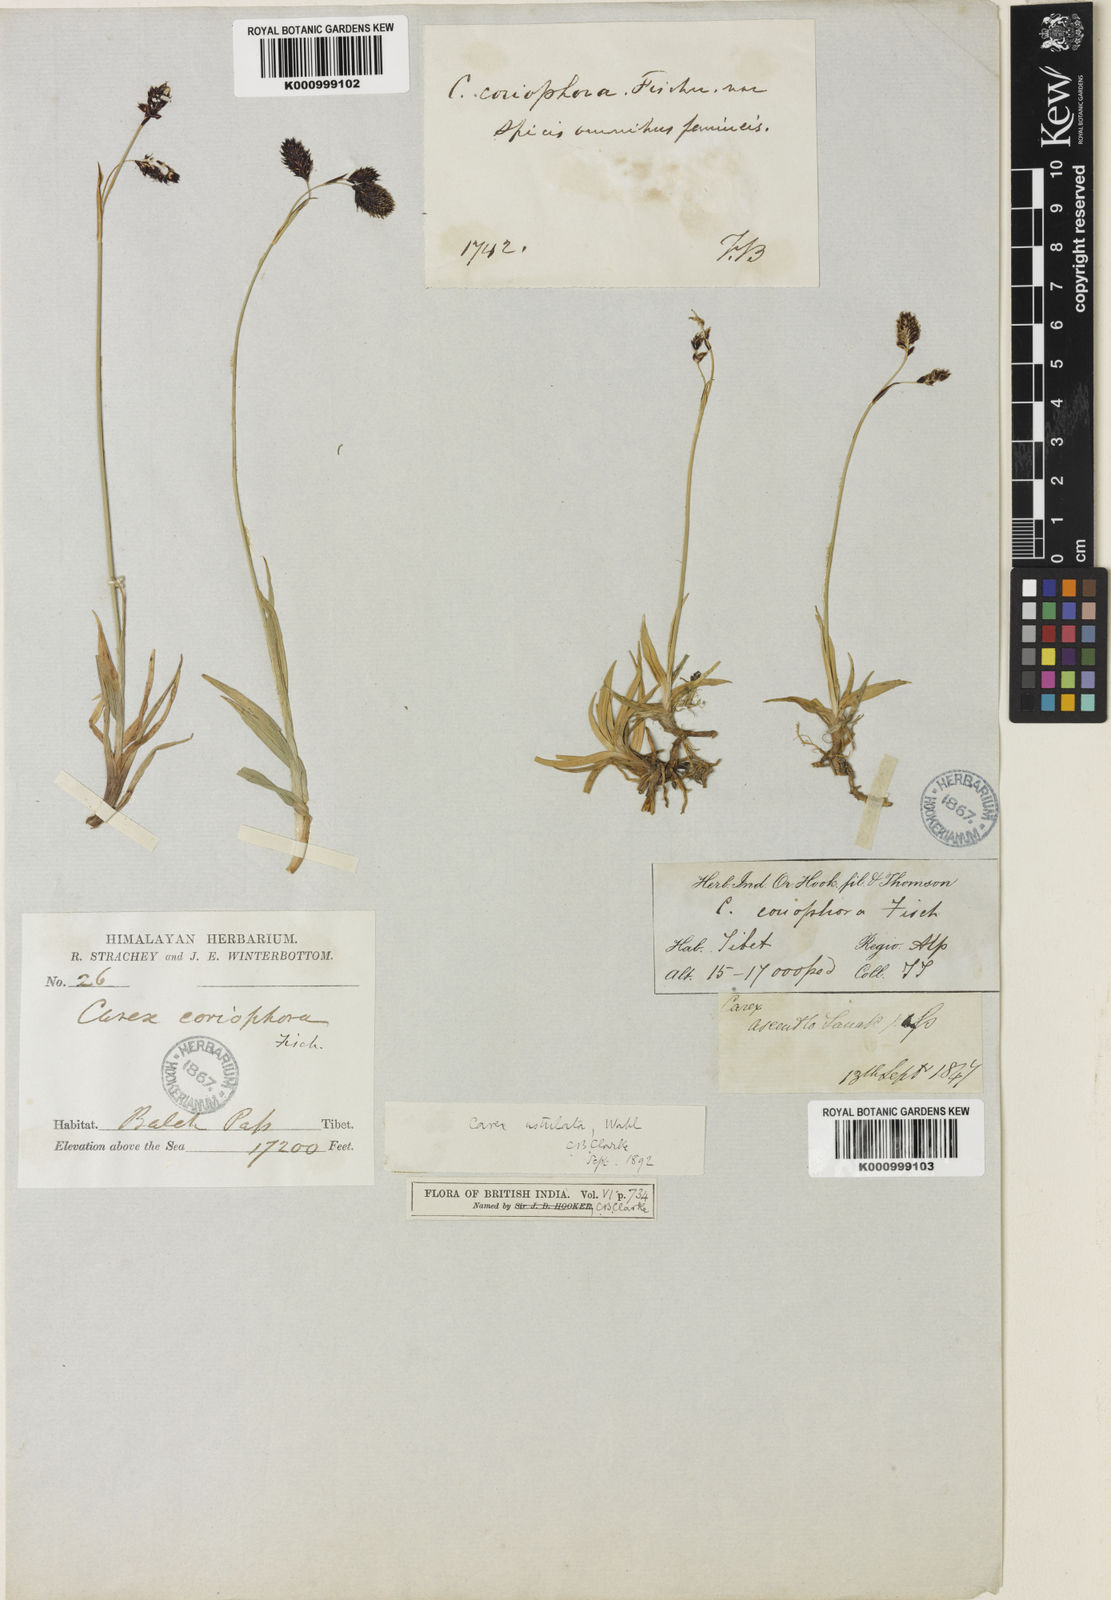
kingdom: Plantae
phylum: Tracheophyta
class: Liliopsida
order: Poales
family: Cyperaceae
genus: Carex
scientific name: Carex hypsobates
